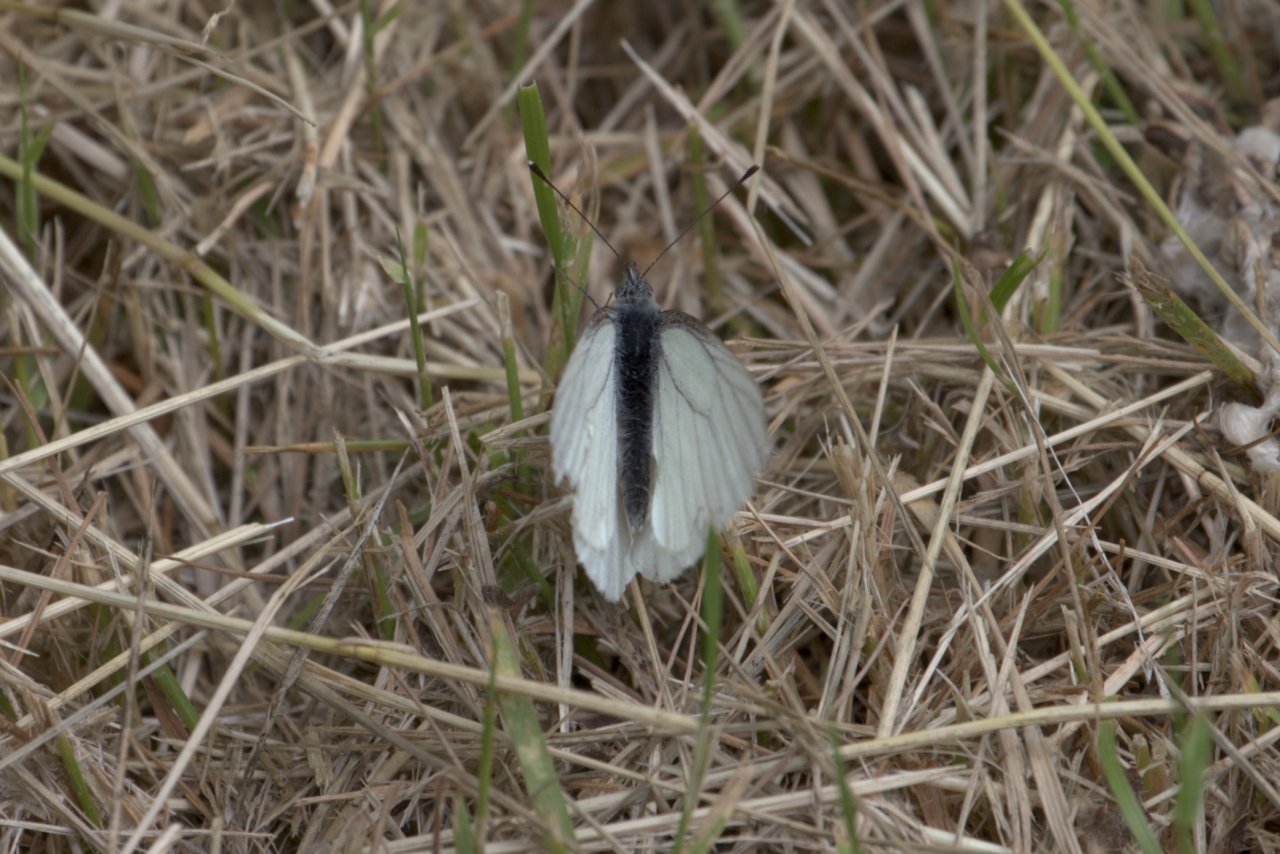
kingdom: Animalia
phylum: Arthropoda
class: Insecta
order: Lepidoptera
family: Pieridae
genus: Pieris
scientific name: Pieris marginalis
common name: Margined White
